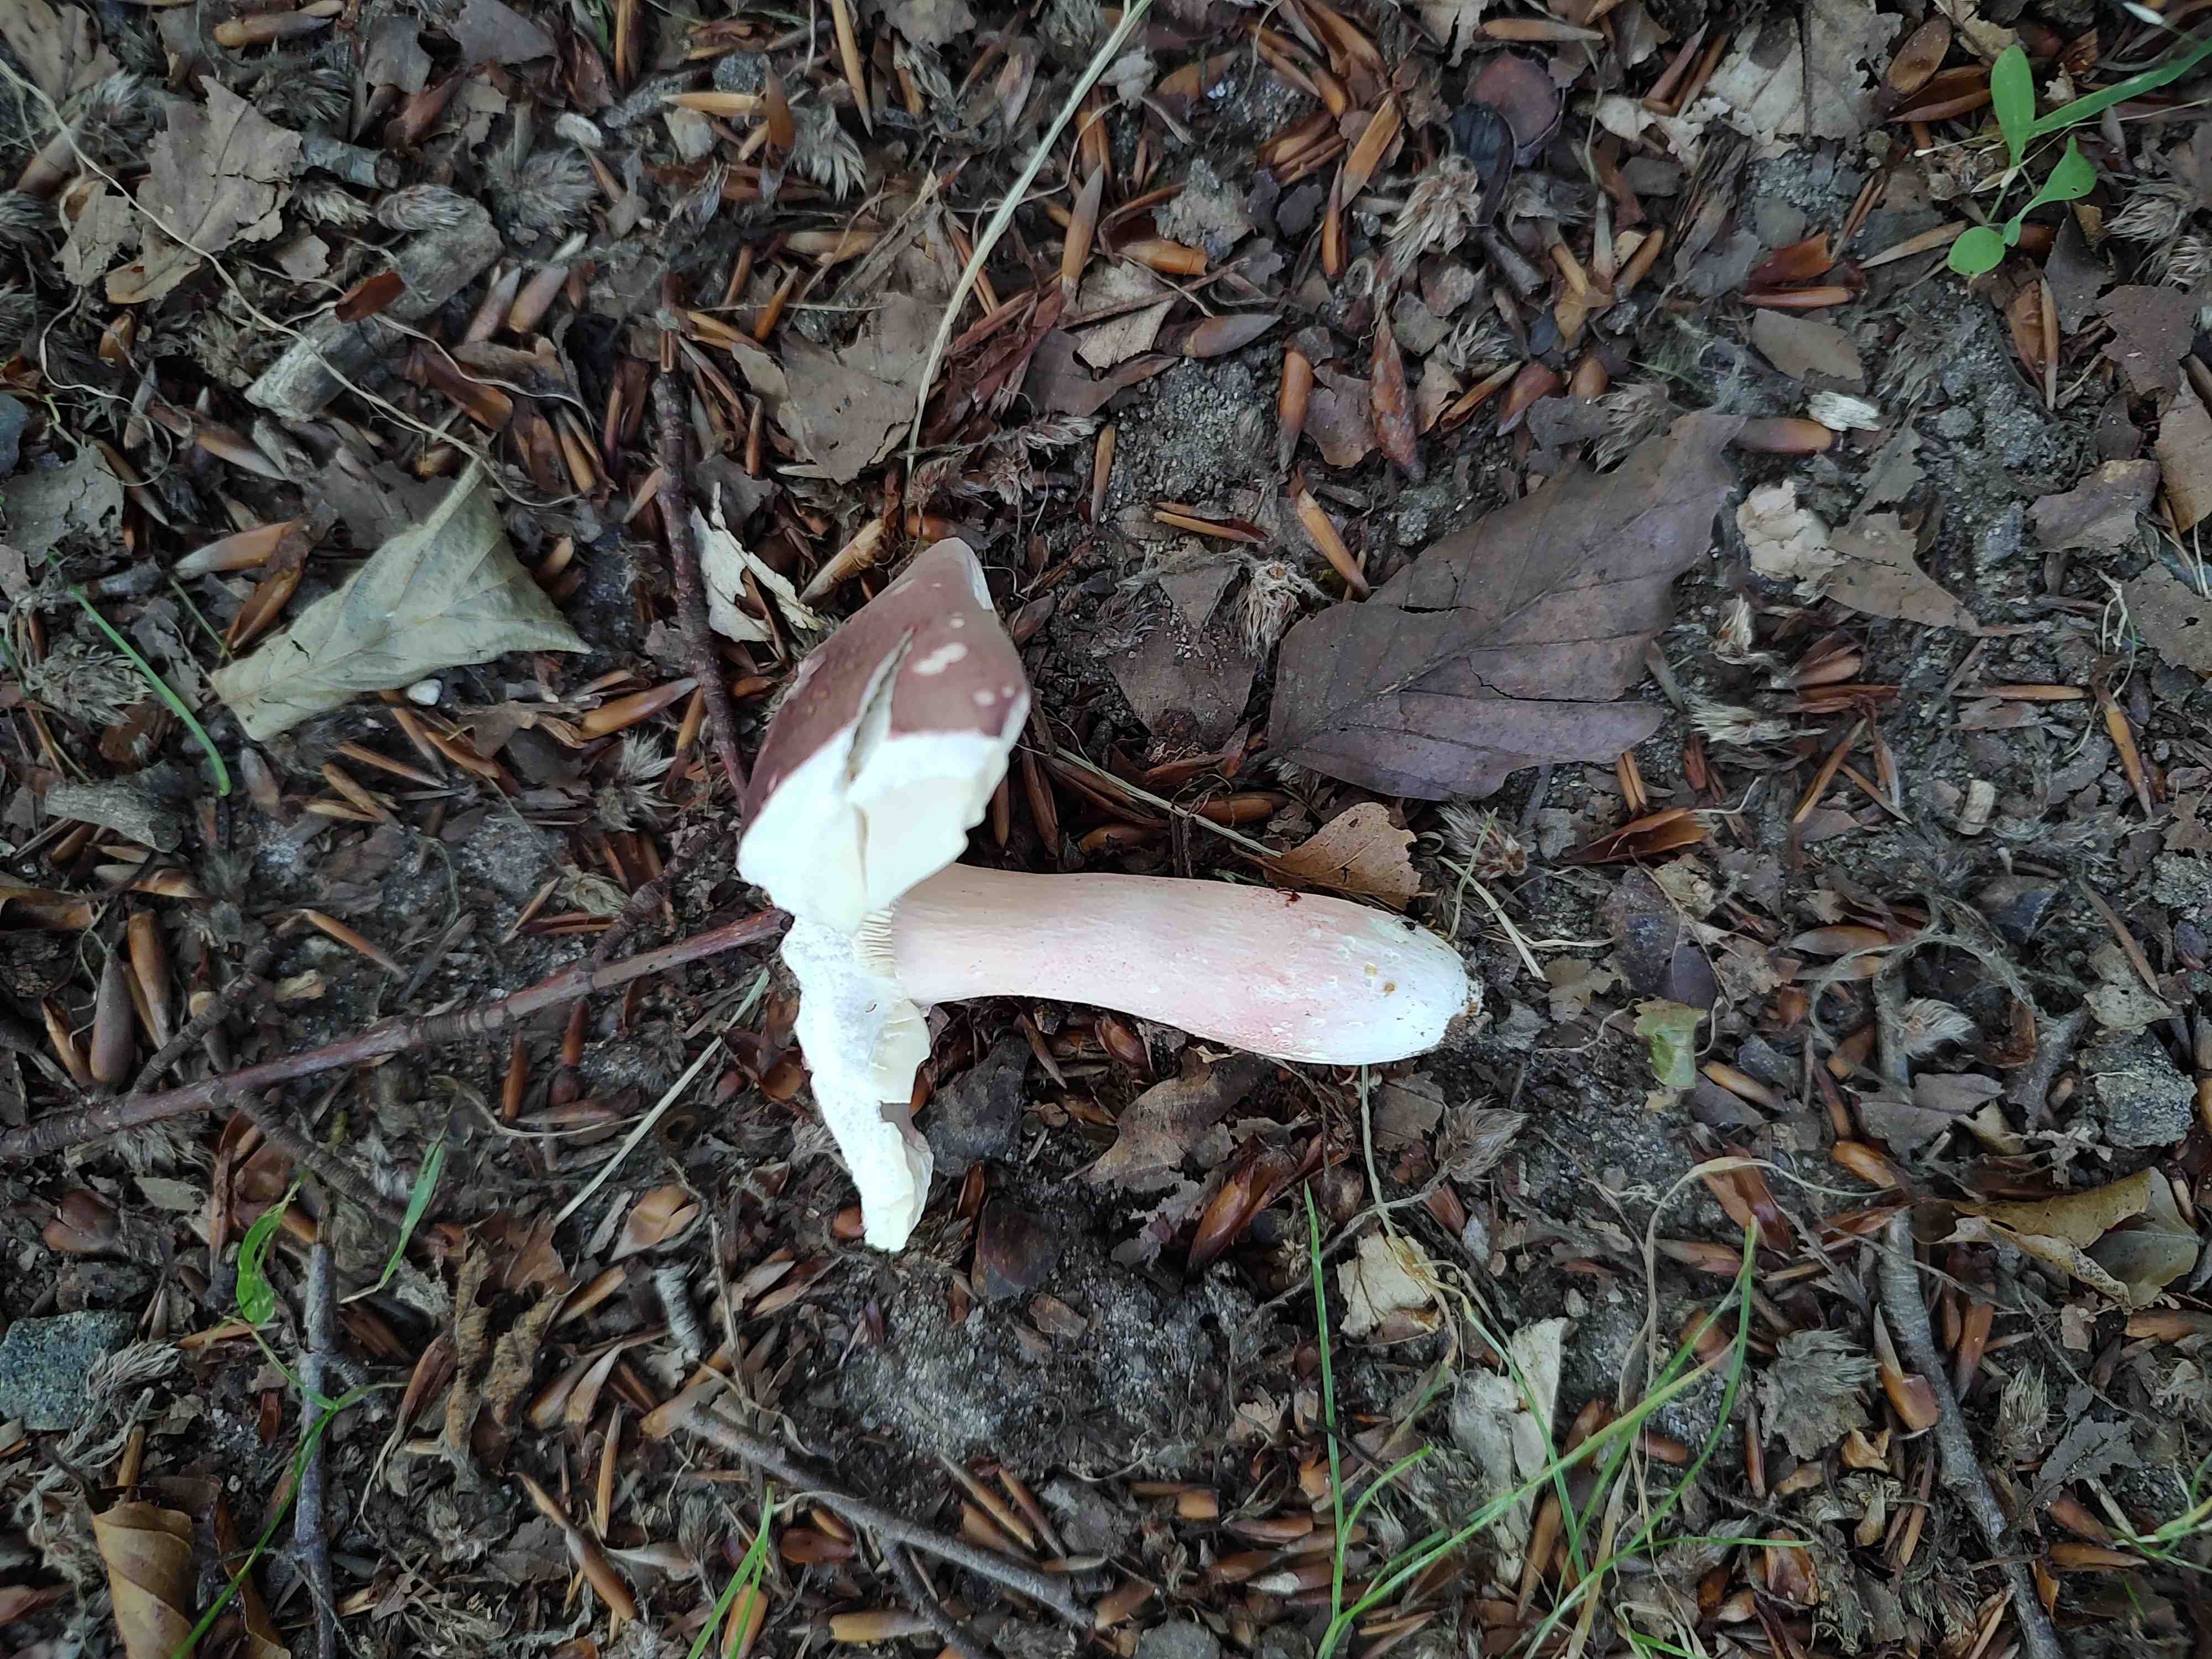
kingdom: Fungi
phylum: Basidiomycota
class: Agaricomycetes
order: Russulales
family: Russulaceae
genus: Russula
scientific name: Russula rosea
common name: fastkødet skørhat
